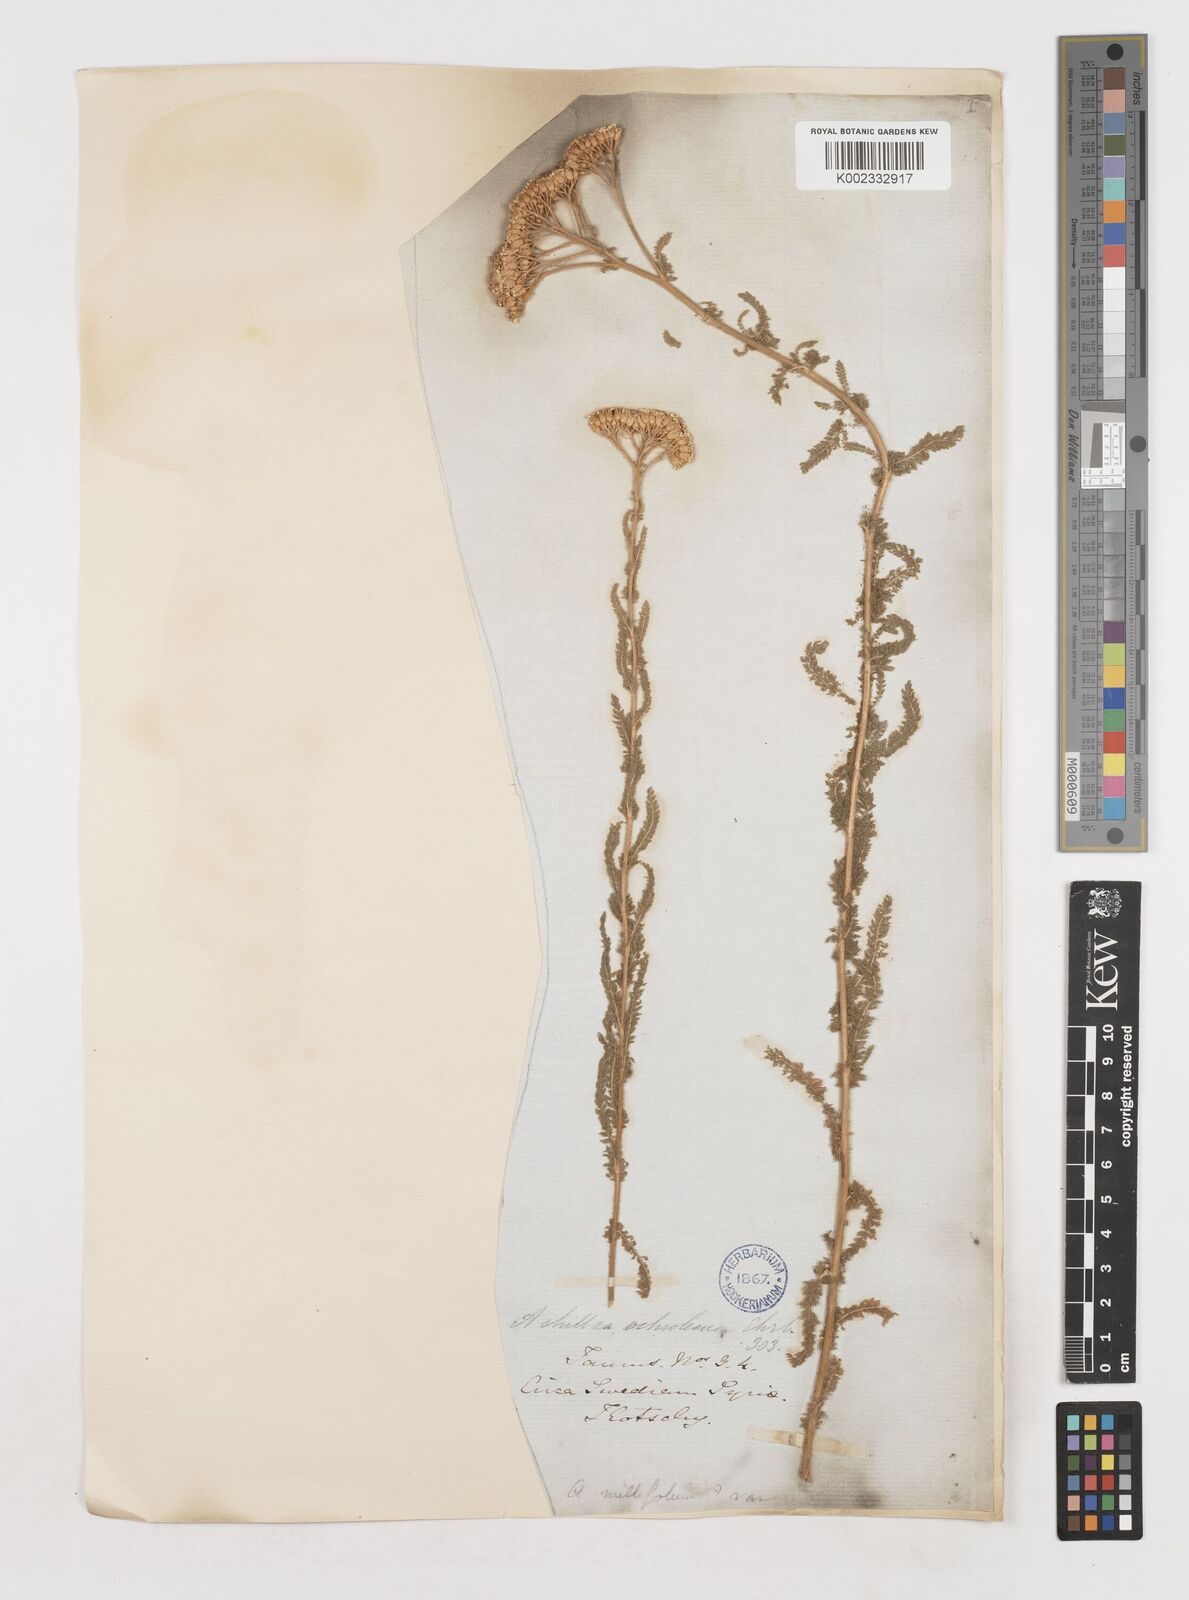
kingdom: Plantae
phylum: Tracheophyta
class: Magnoliopsida
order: Asterales
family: Asteraceae
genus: Achillea
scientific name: Achillea arabica
